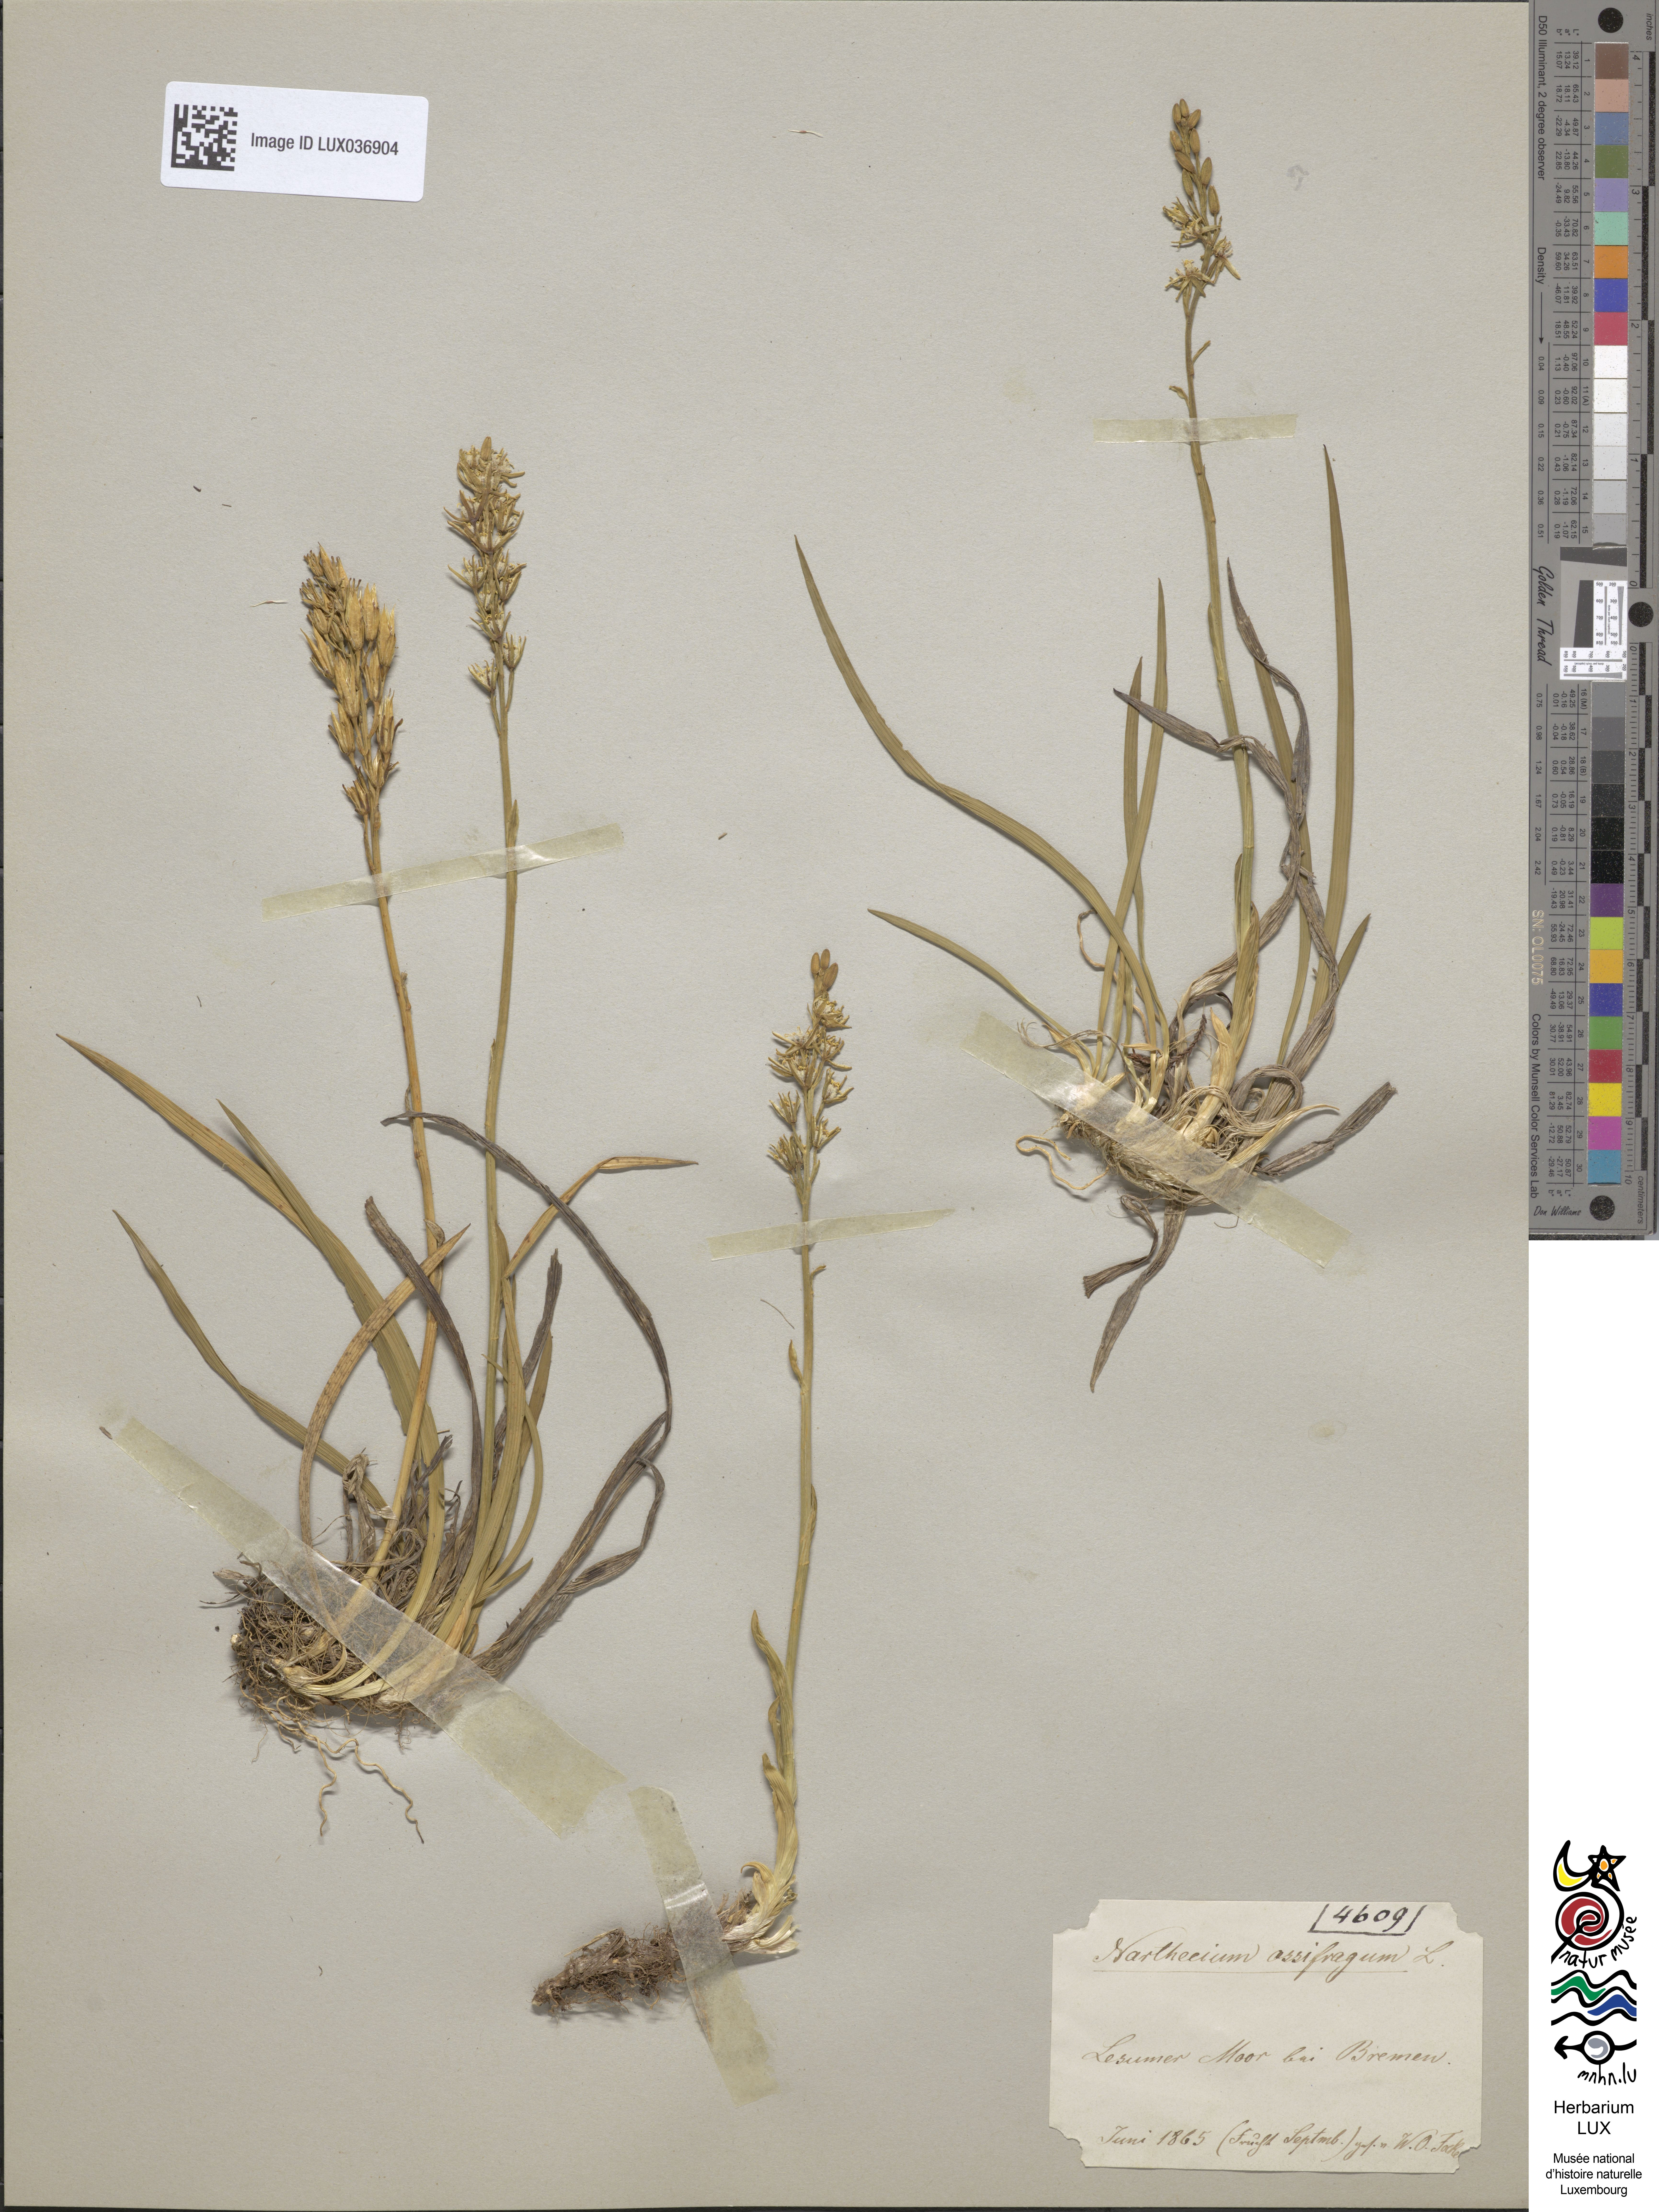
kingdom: Plantae
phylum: Tracheophyta
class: Liliopsida
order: Dioscoreales
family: Nartheciaceae
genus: Narthecium
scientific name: Narthecium ossifragum
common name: Bog asphodel
